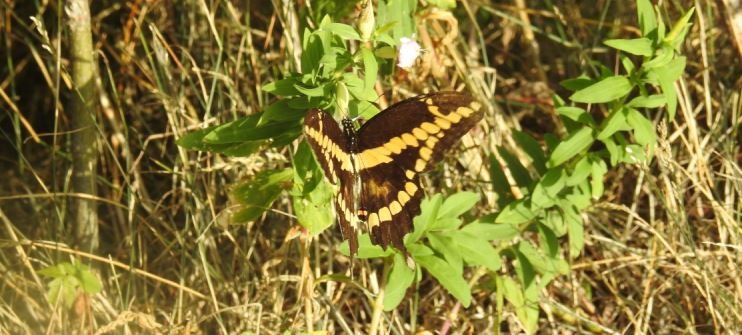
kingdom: Animalia
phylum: Arthropoda
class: Insecta
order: Lepidoptera
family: Papilionidae
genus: Papilio
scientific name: Papilio cresphontes
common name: Eastern Giant Swallowtail
